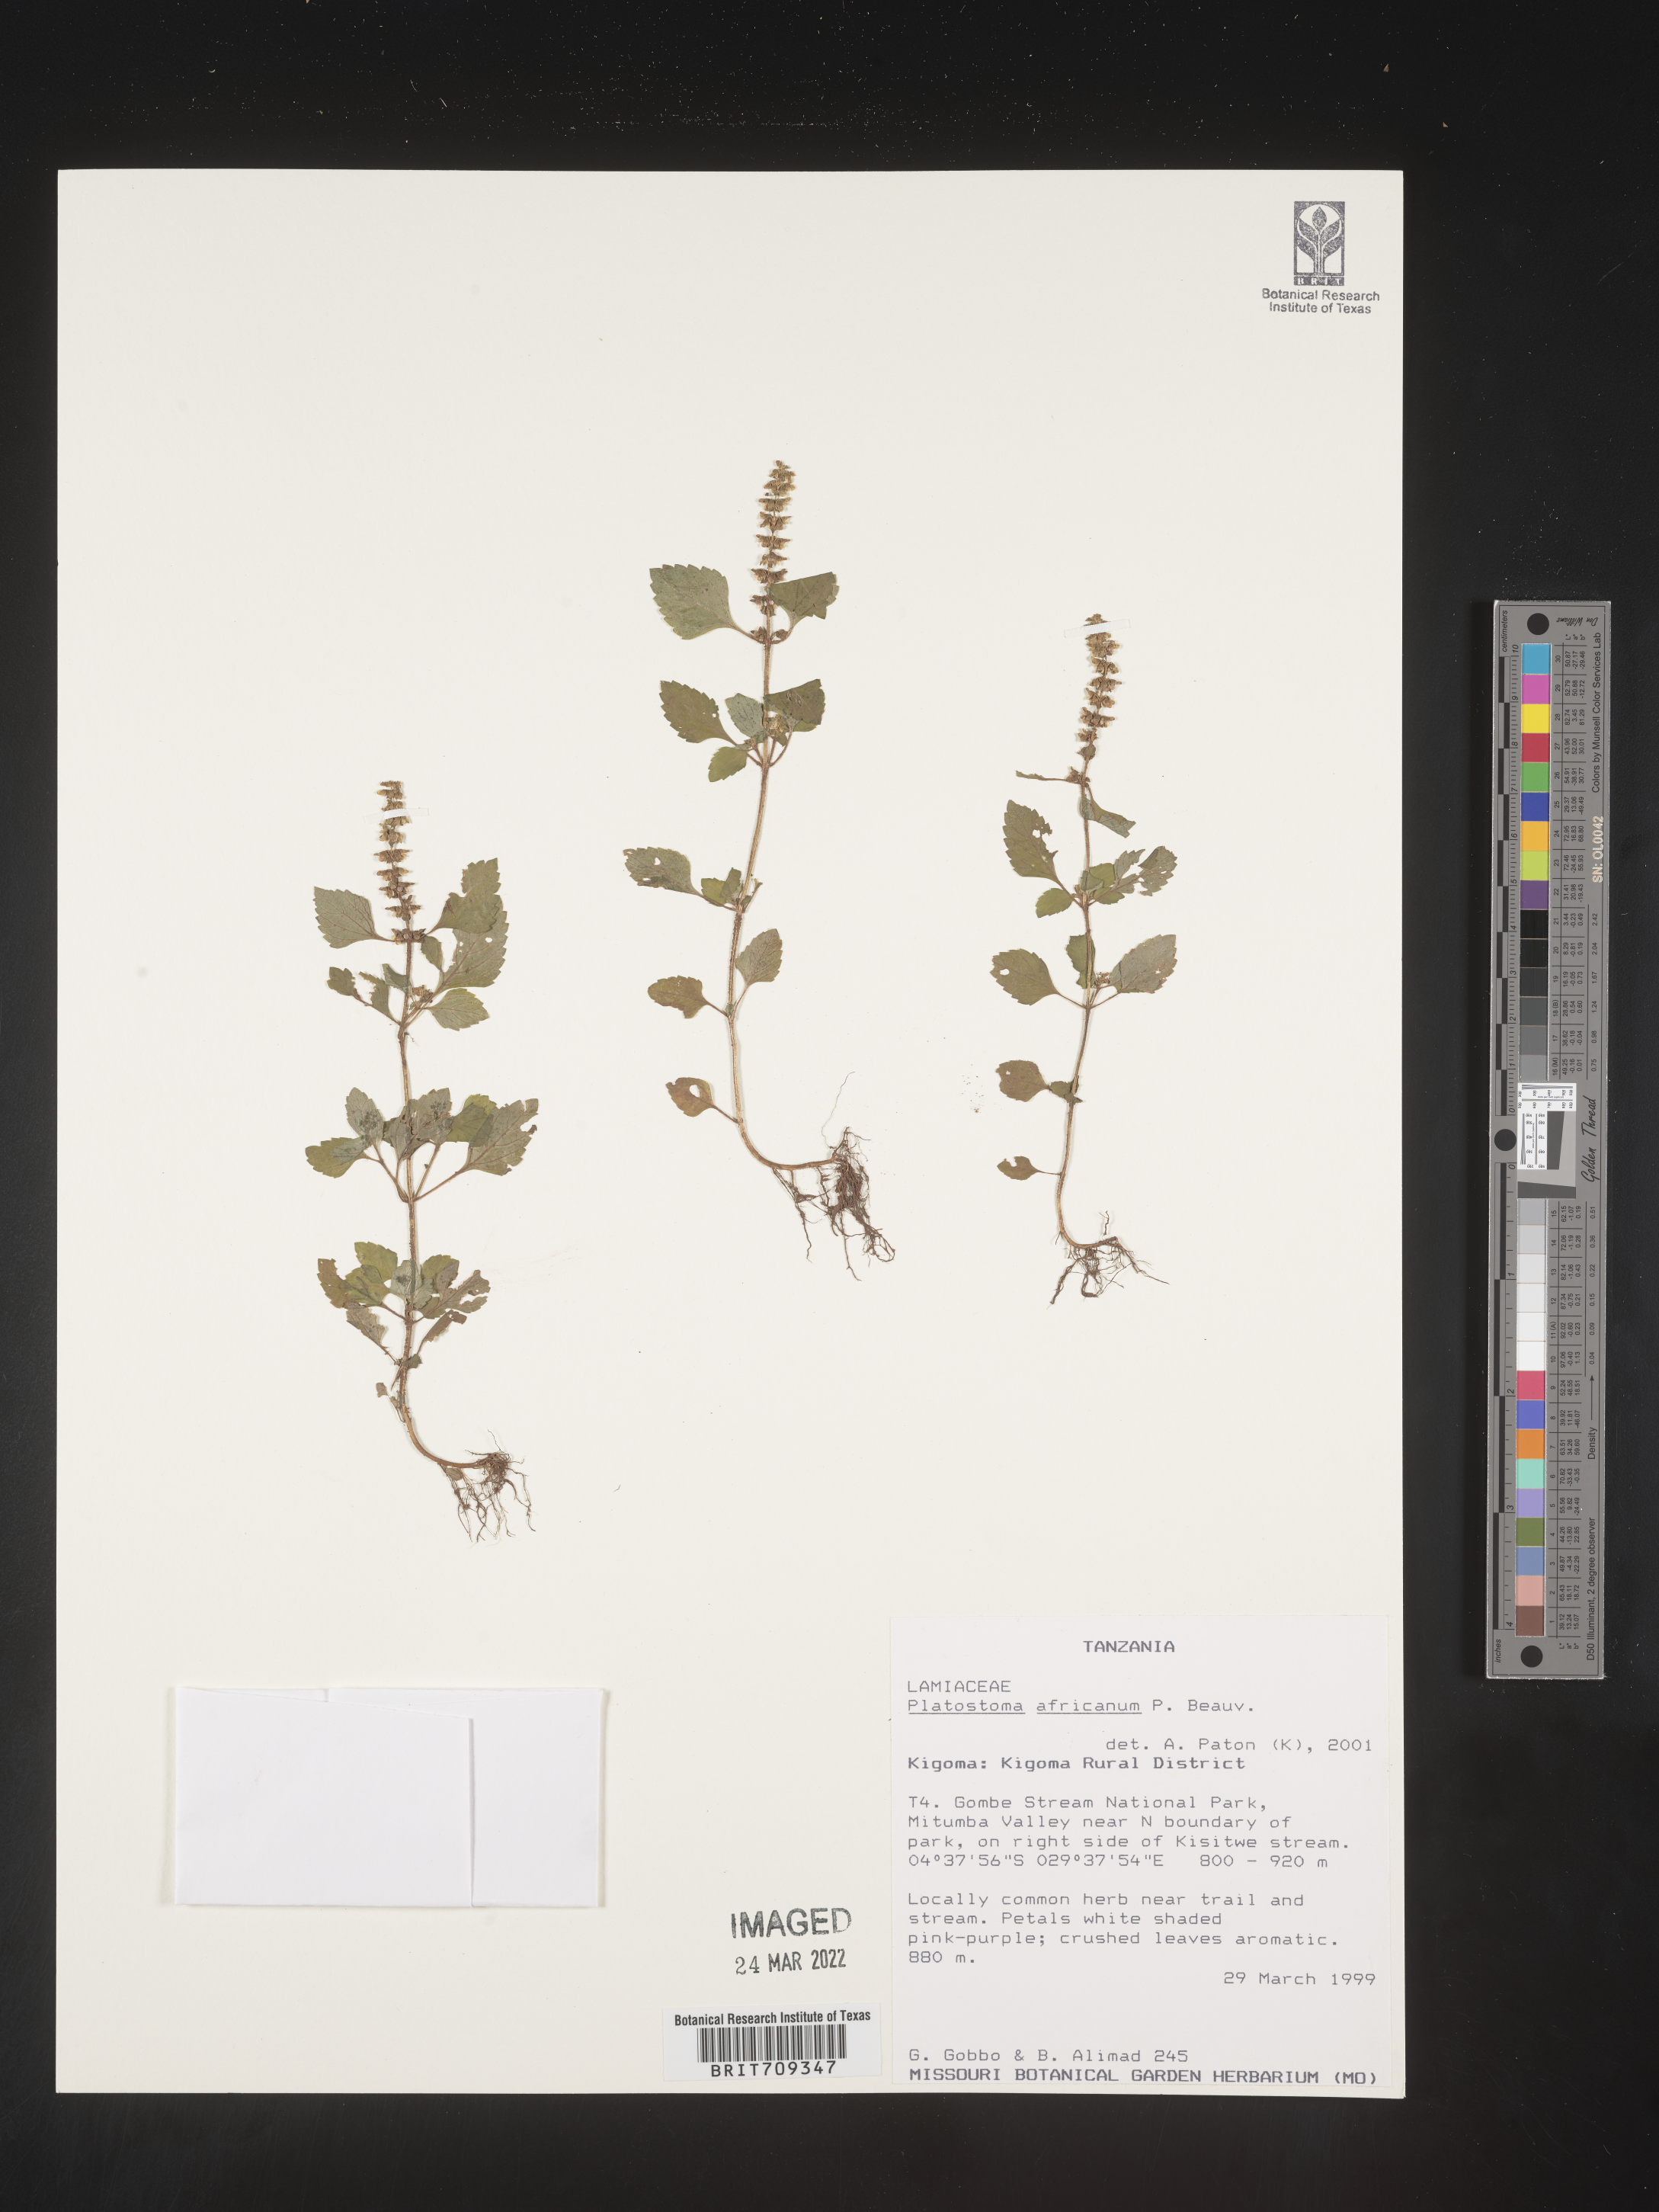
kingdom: Plantae
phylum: Tracheophyta
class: Magnoliopsida
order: Lamiales
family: Lamiaceae
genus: Platystoma
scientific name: Platystoma
